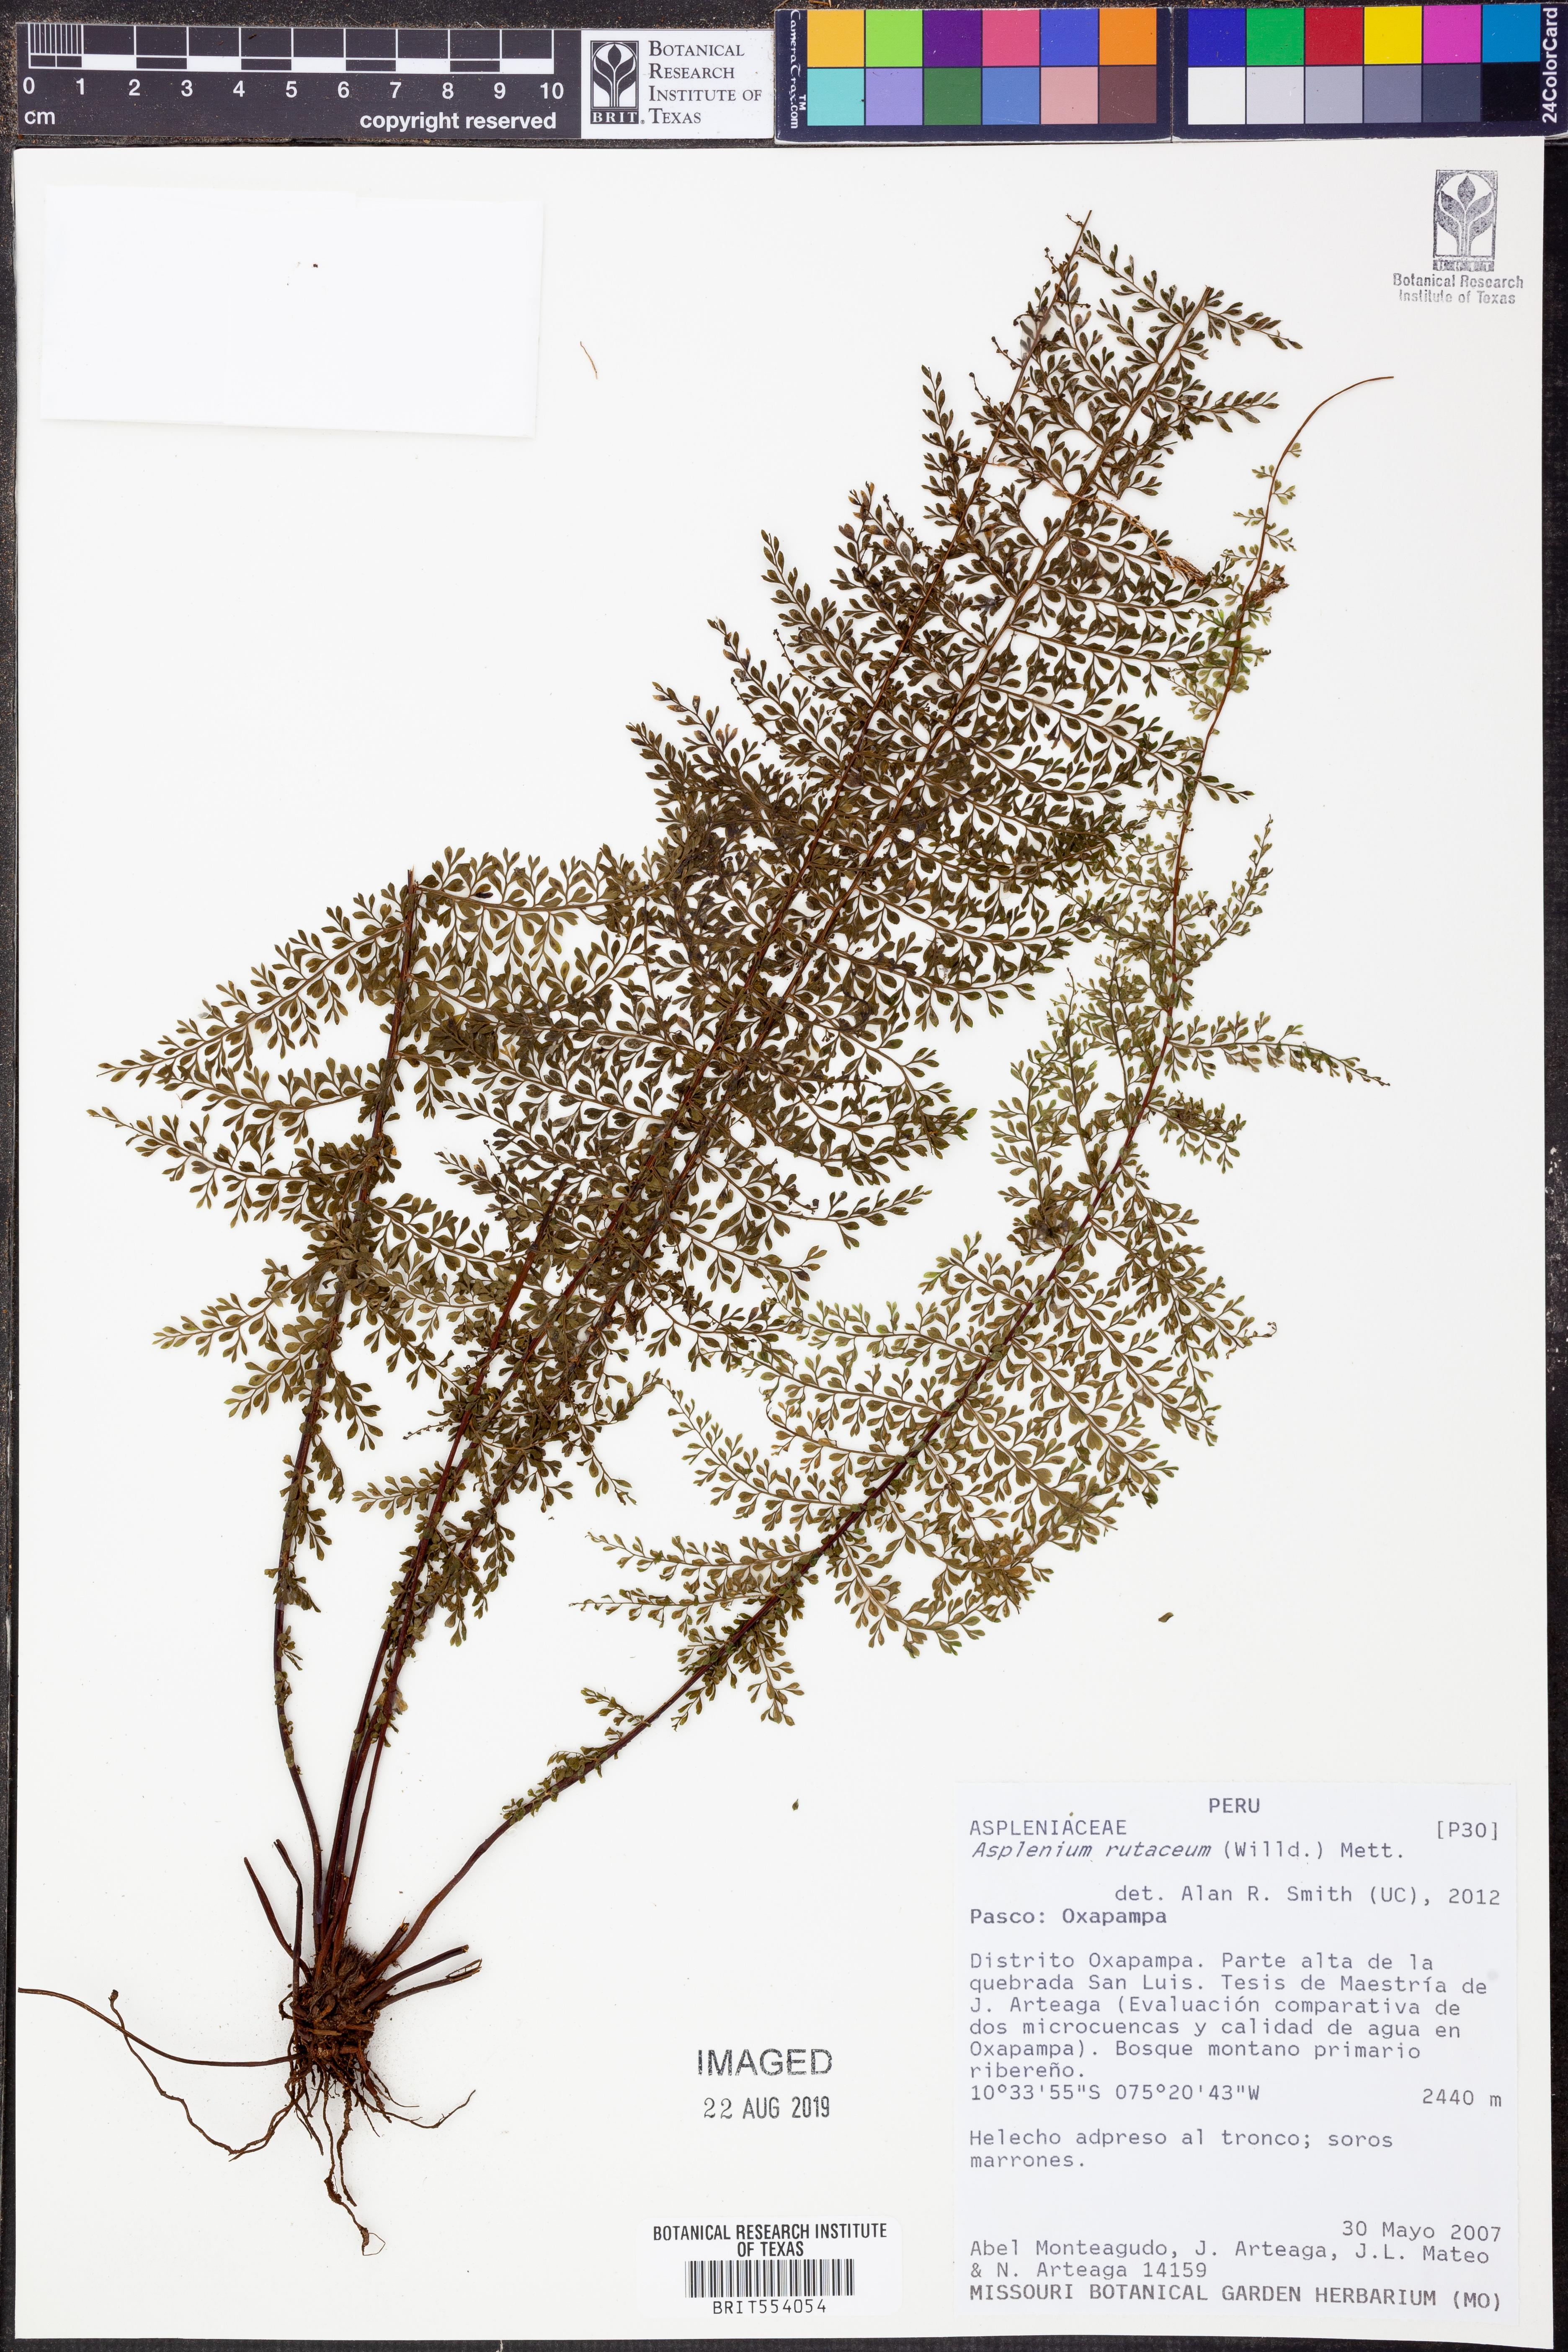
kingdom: Plantae
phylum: Tracheophyta
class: Polypodiopsida
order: Polypodiales
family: Aspleniaceae
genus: Asplenium
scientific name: Asplenium rutaceum
